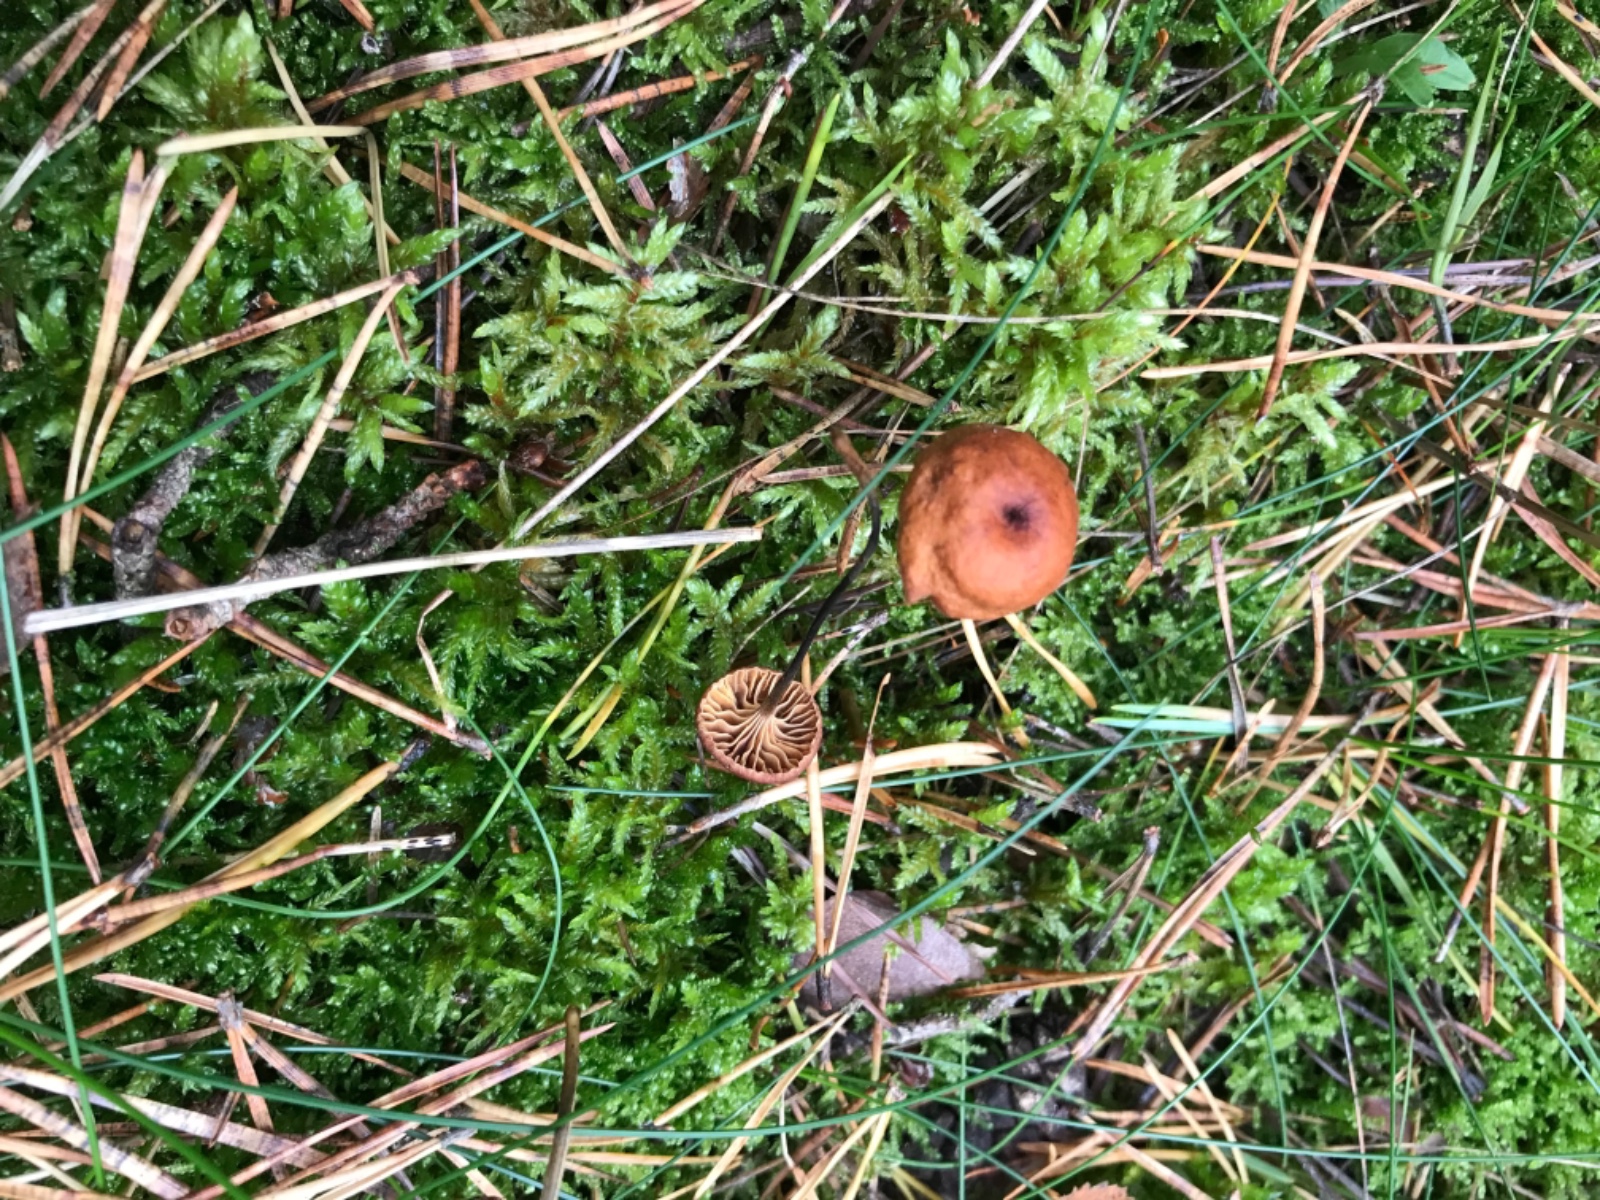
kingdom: Fungi
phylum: Basidiomycota
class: Agaricomycetes
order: Agaricales
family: Mycenaceae
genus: Xeromphalina
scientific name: Xeromphalina cornui
